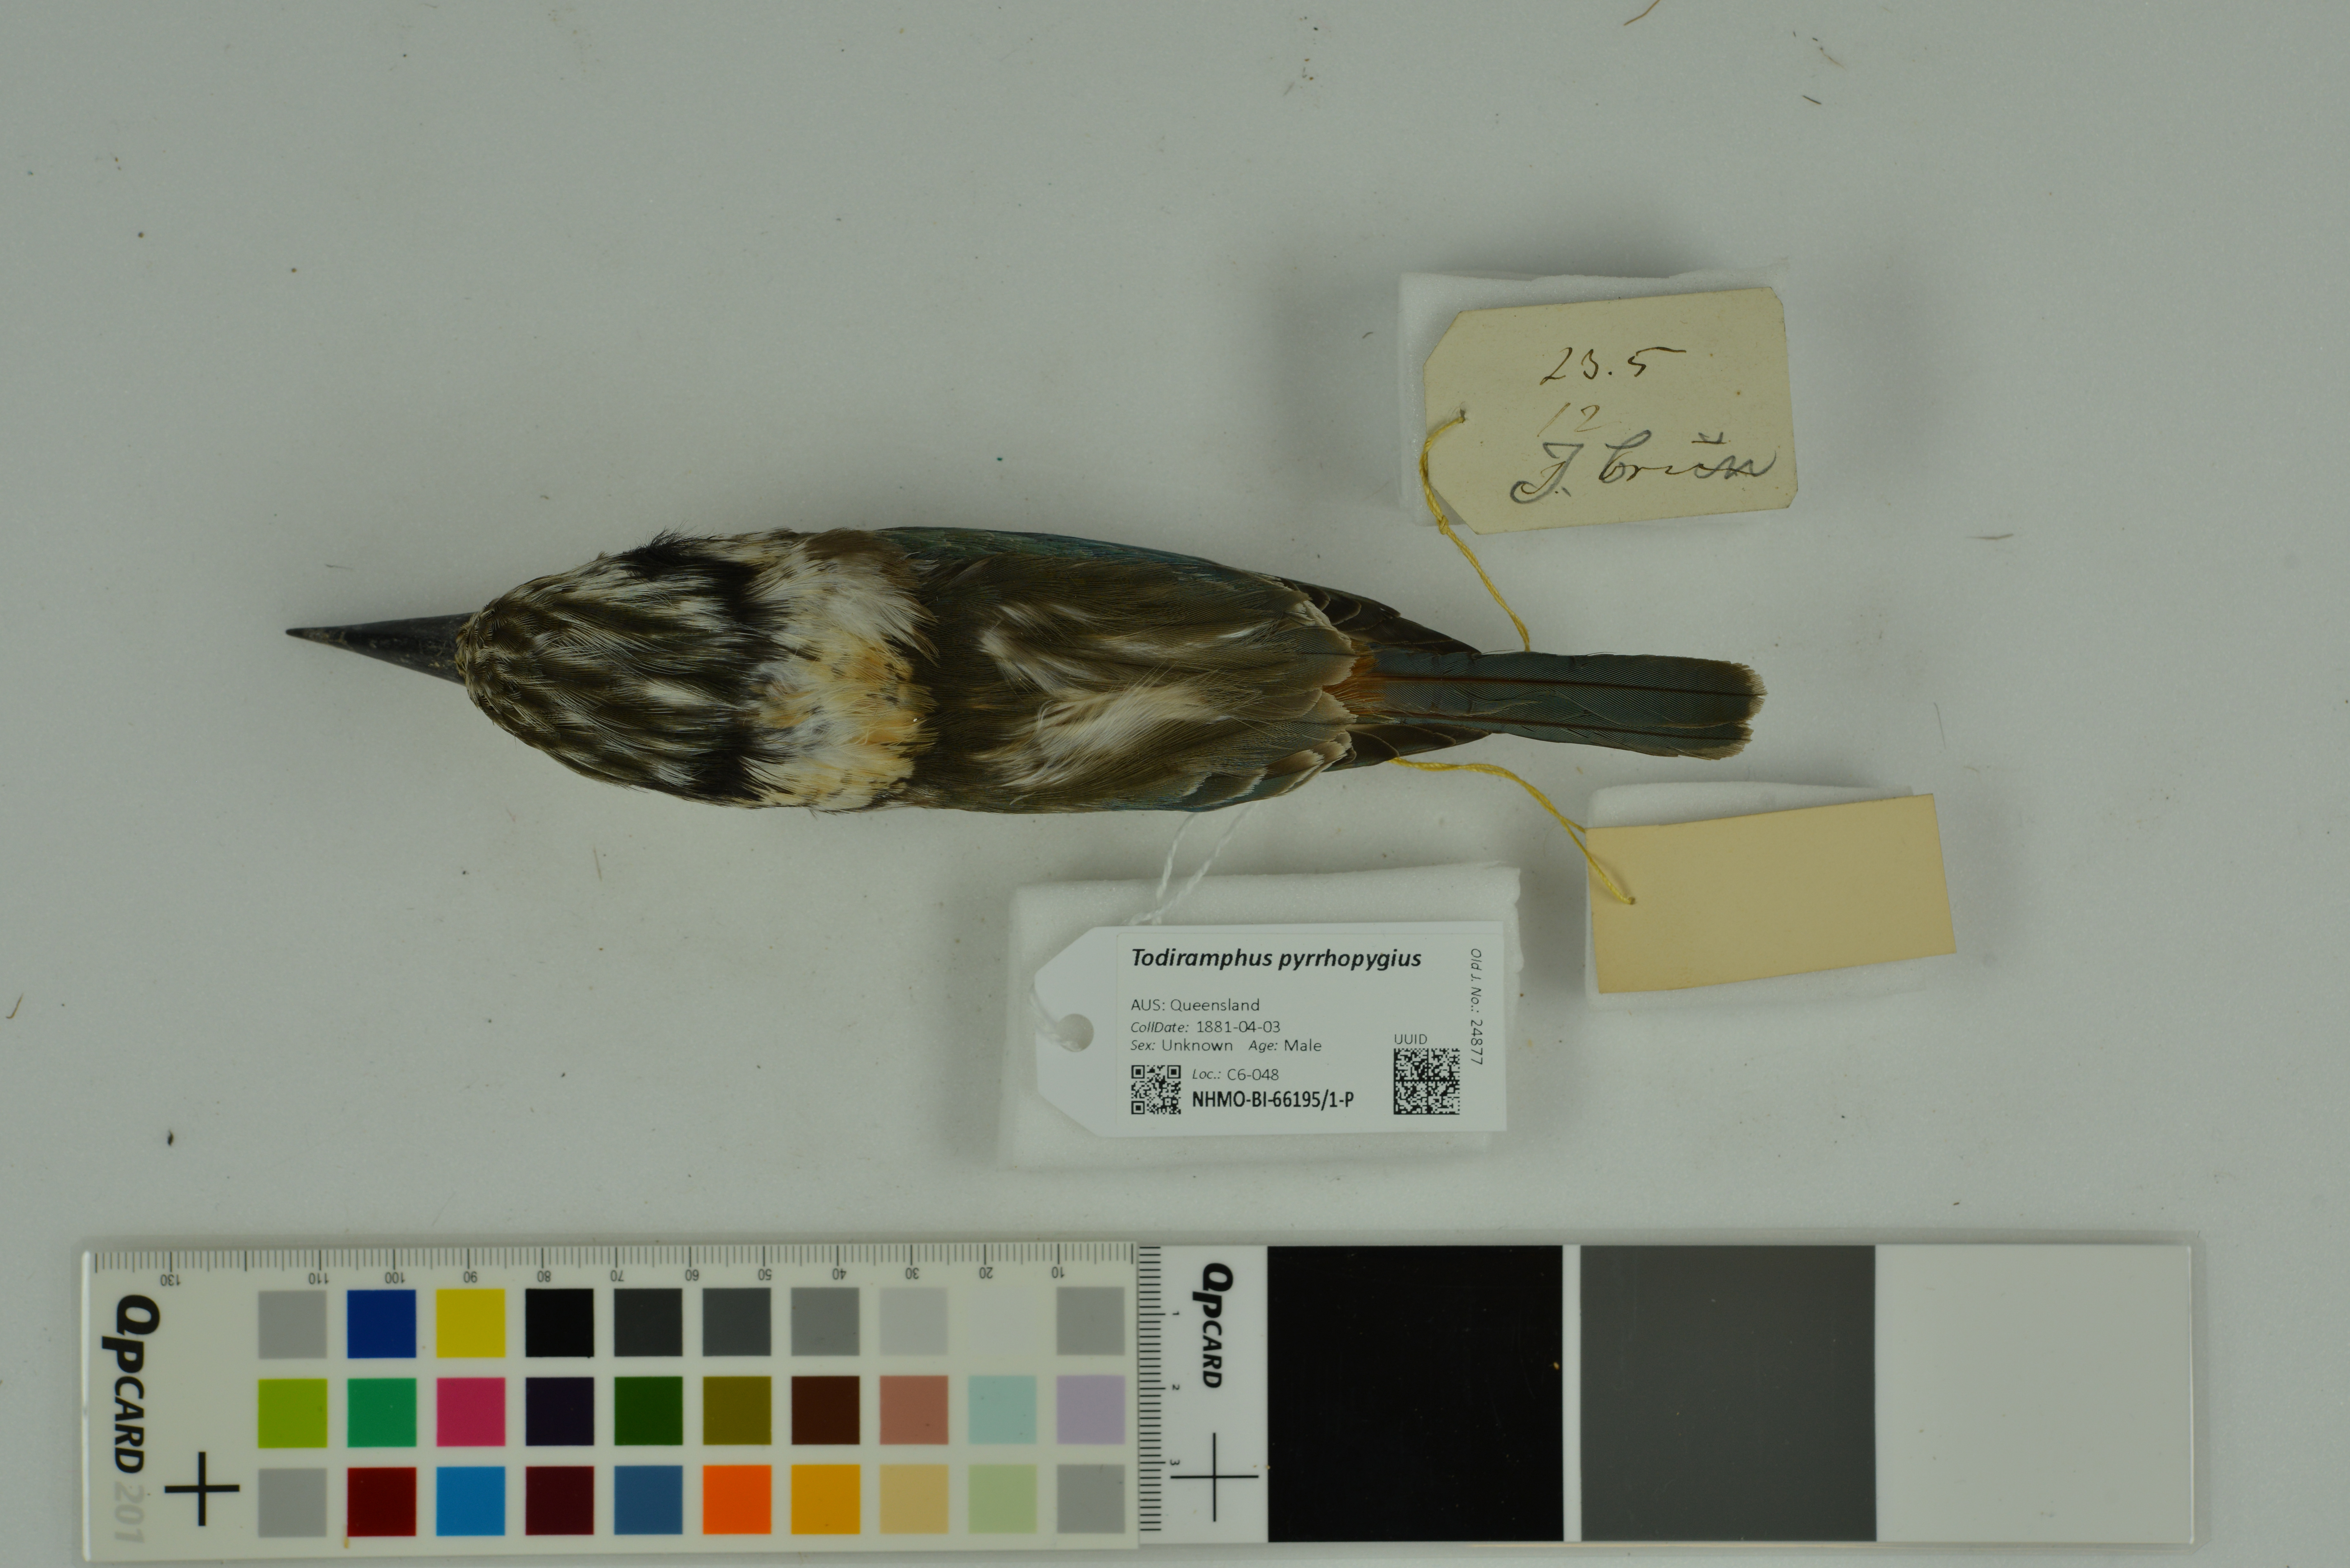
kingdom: Animalia
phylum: Chordata
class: Aves
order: Coraciiformes
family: Alcedinidae
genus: Todiramphus
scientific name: Todiramphus pyrrhopygius
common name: Red-backed kingfisher
